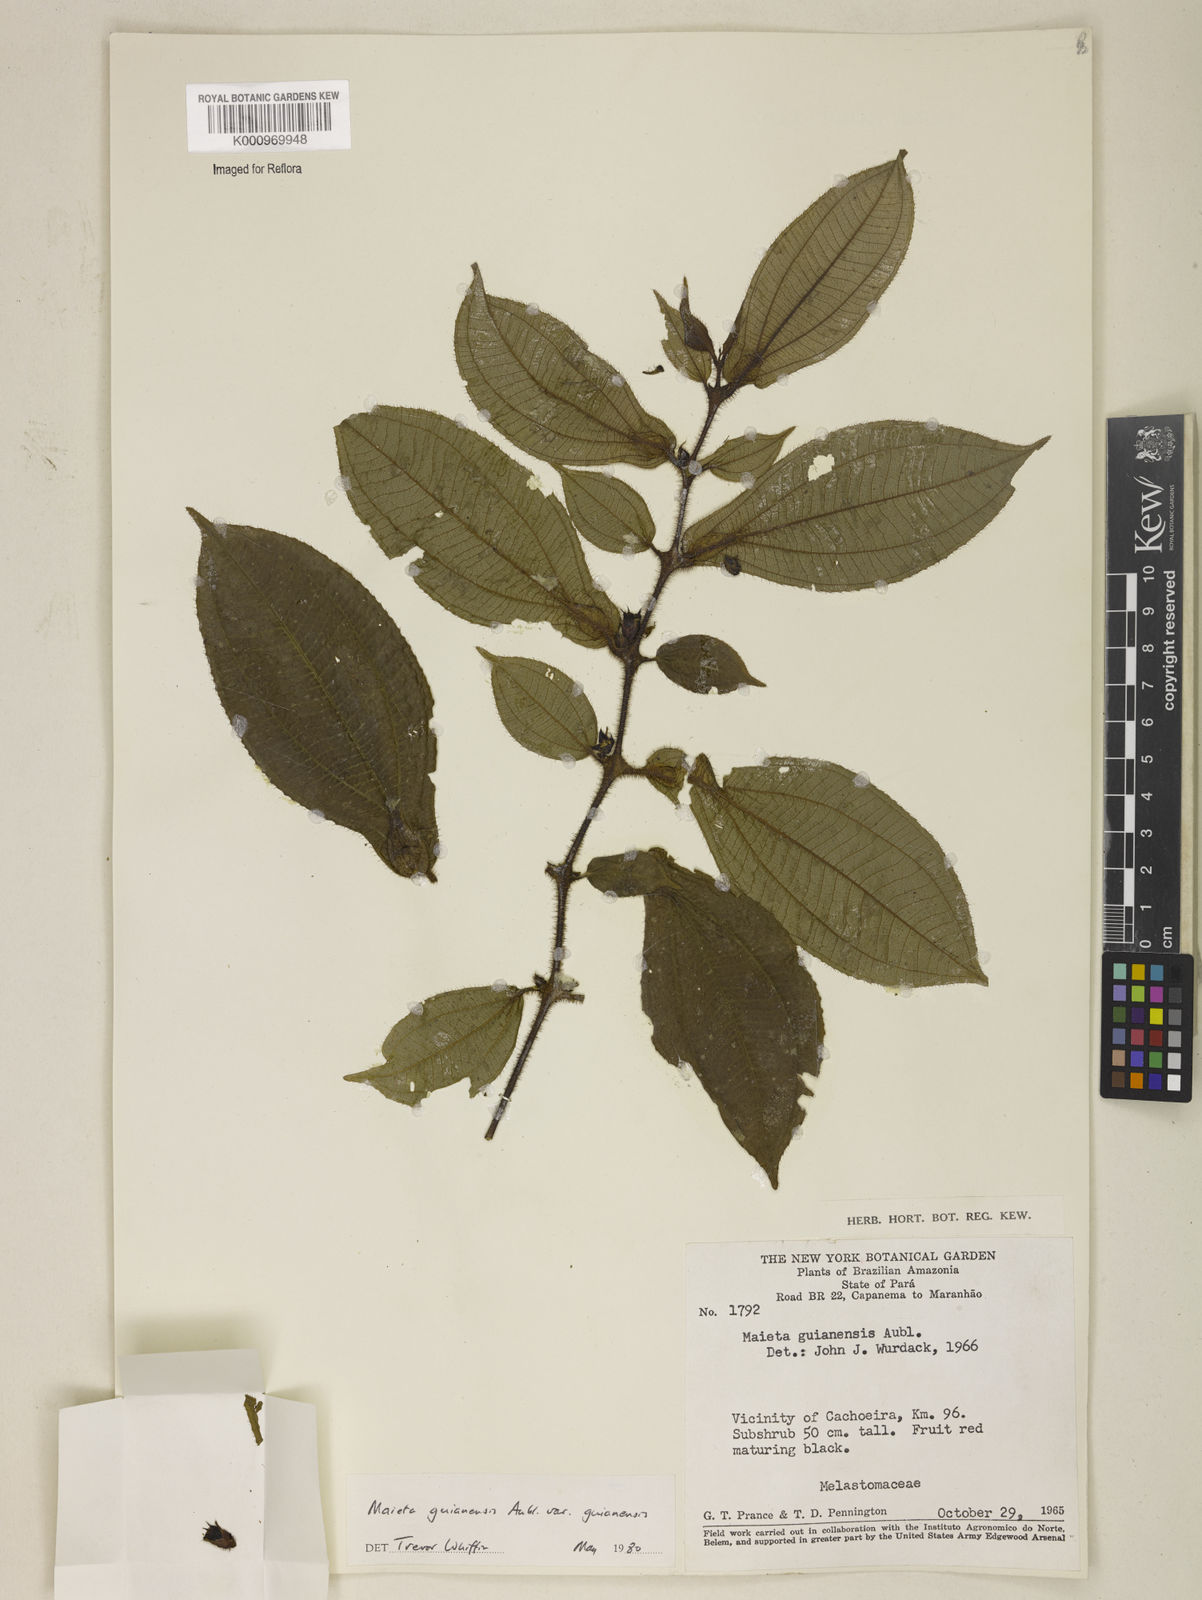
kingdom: Plantae
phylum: Tracheophyta
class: Magnoliopsida
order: Myrtales
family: Melastomataceae
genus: Miconia
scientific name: Miconia mayeta
